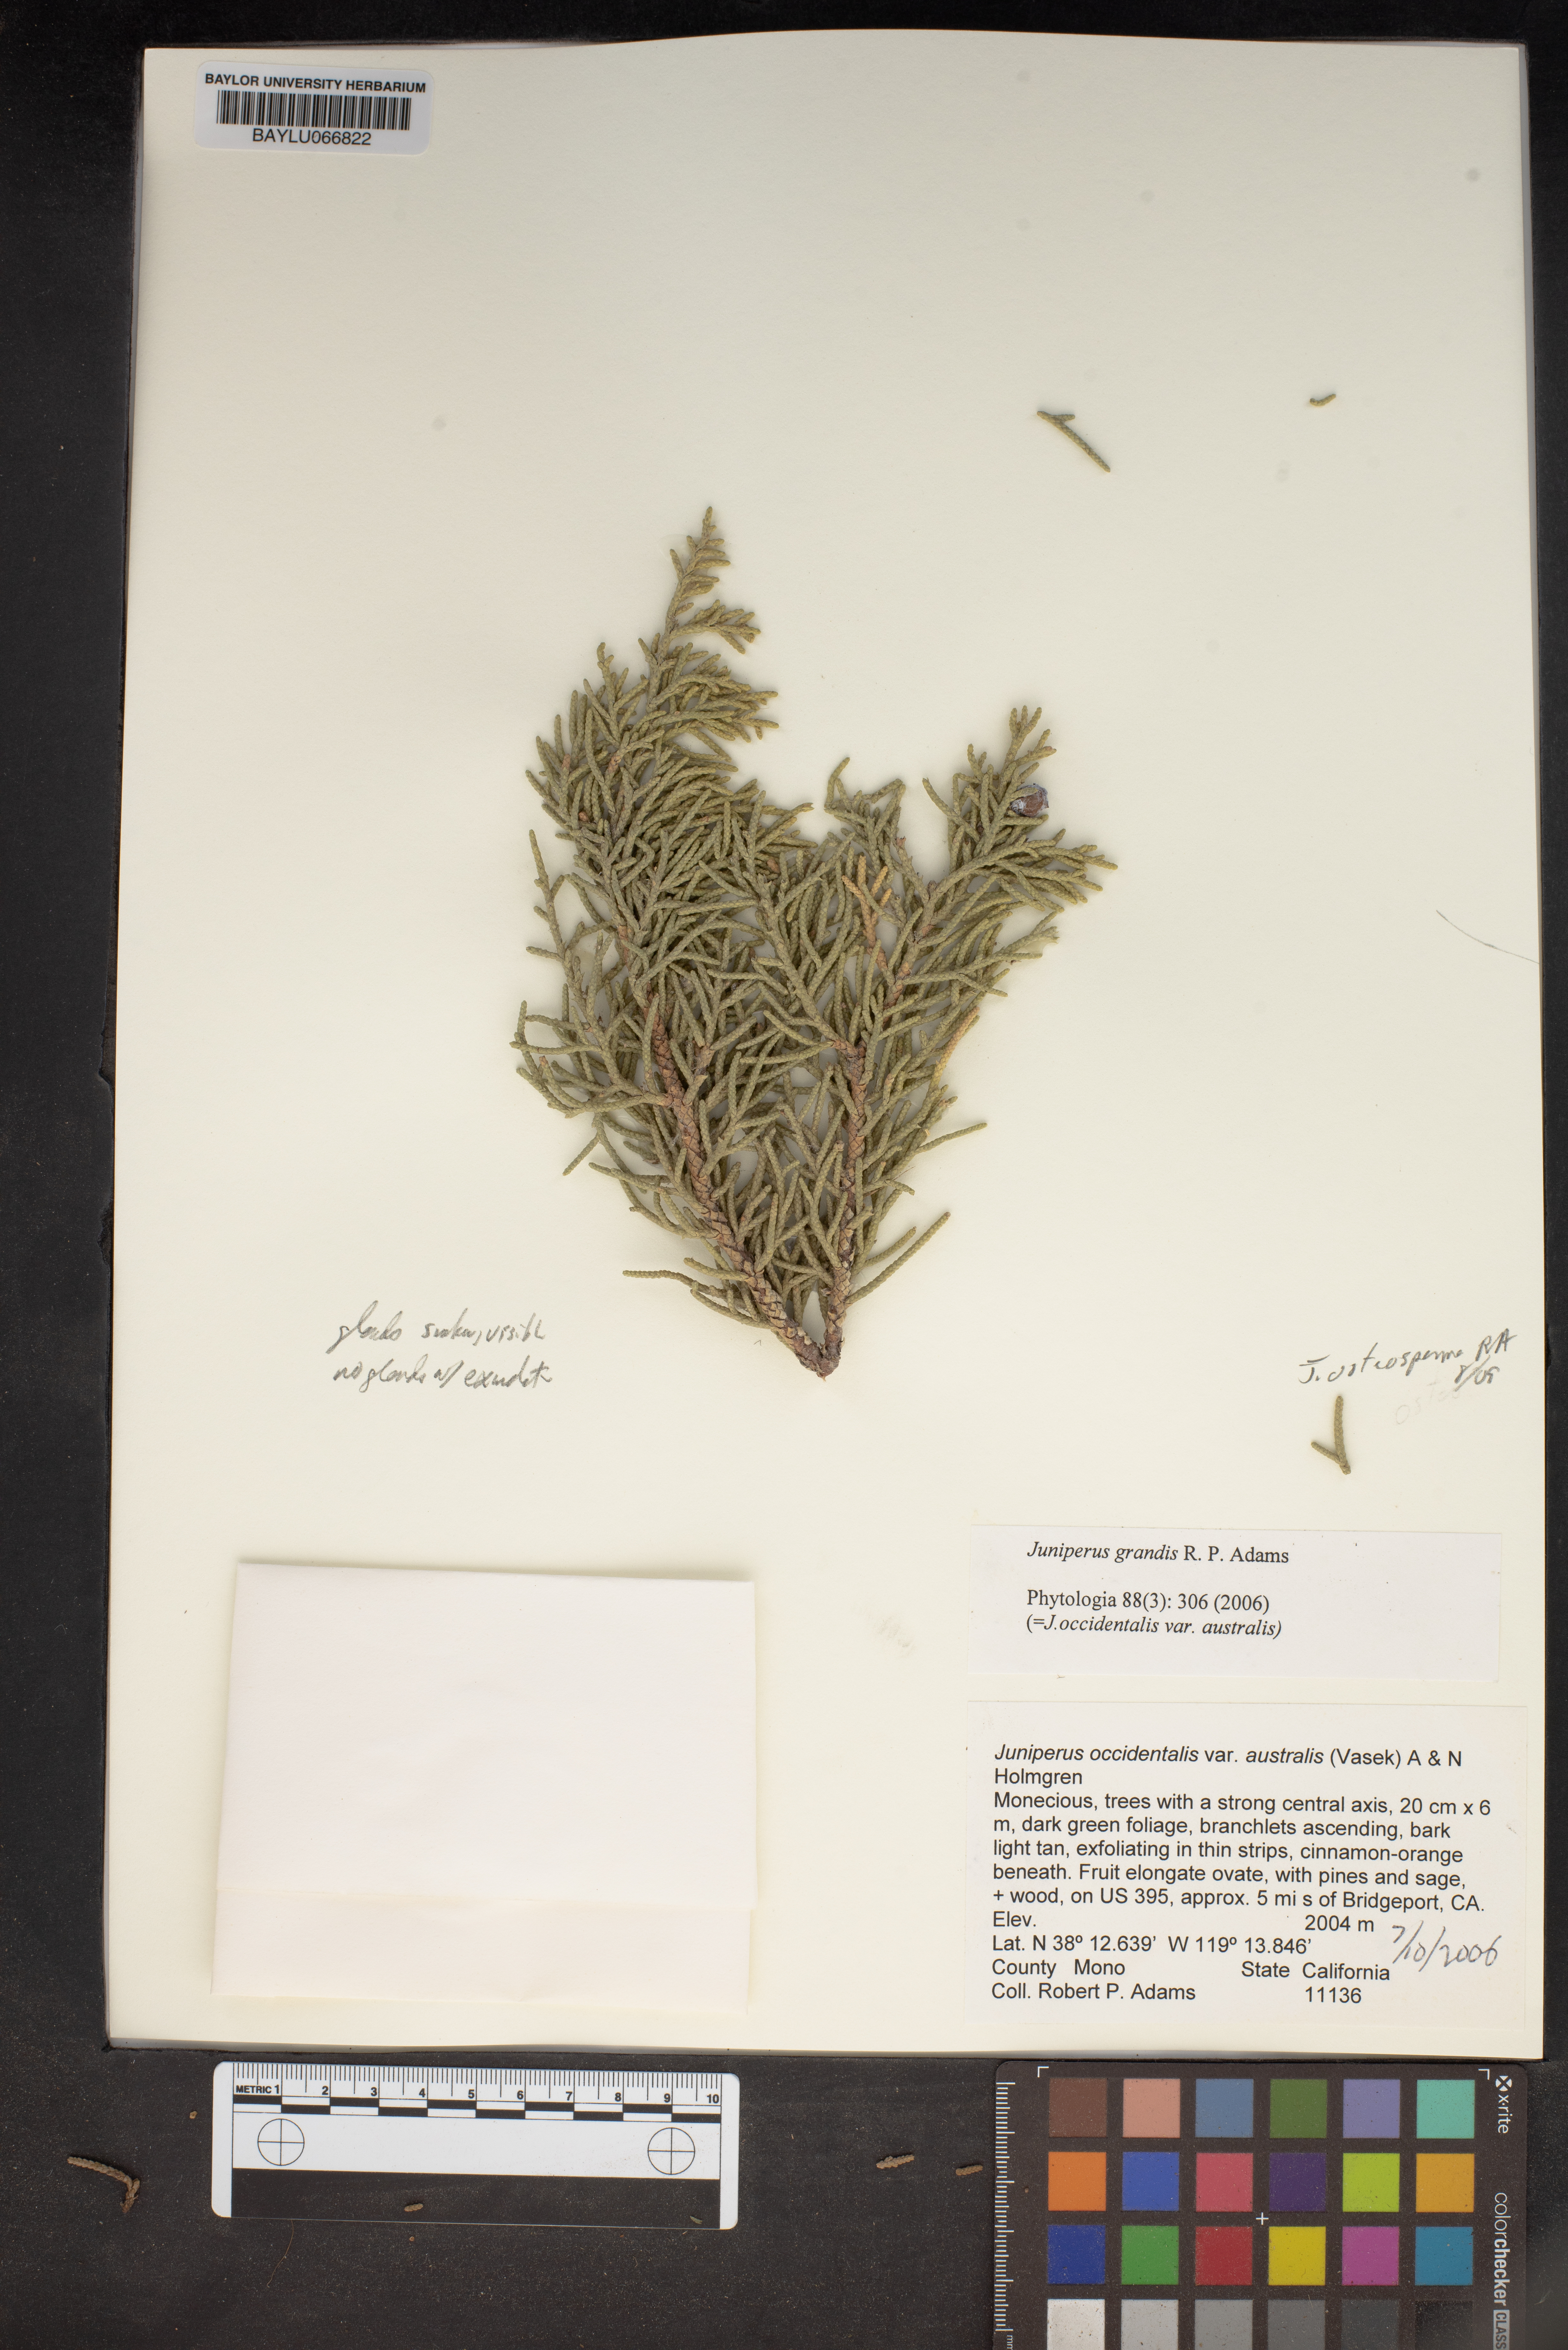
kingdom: Plantae
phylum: Tracheophyta
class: Pinopsida
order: Pinales
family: Cupressaceae
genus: Juniperus
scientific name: Juniperus
